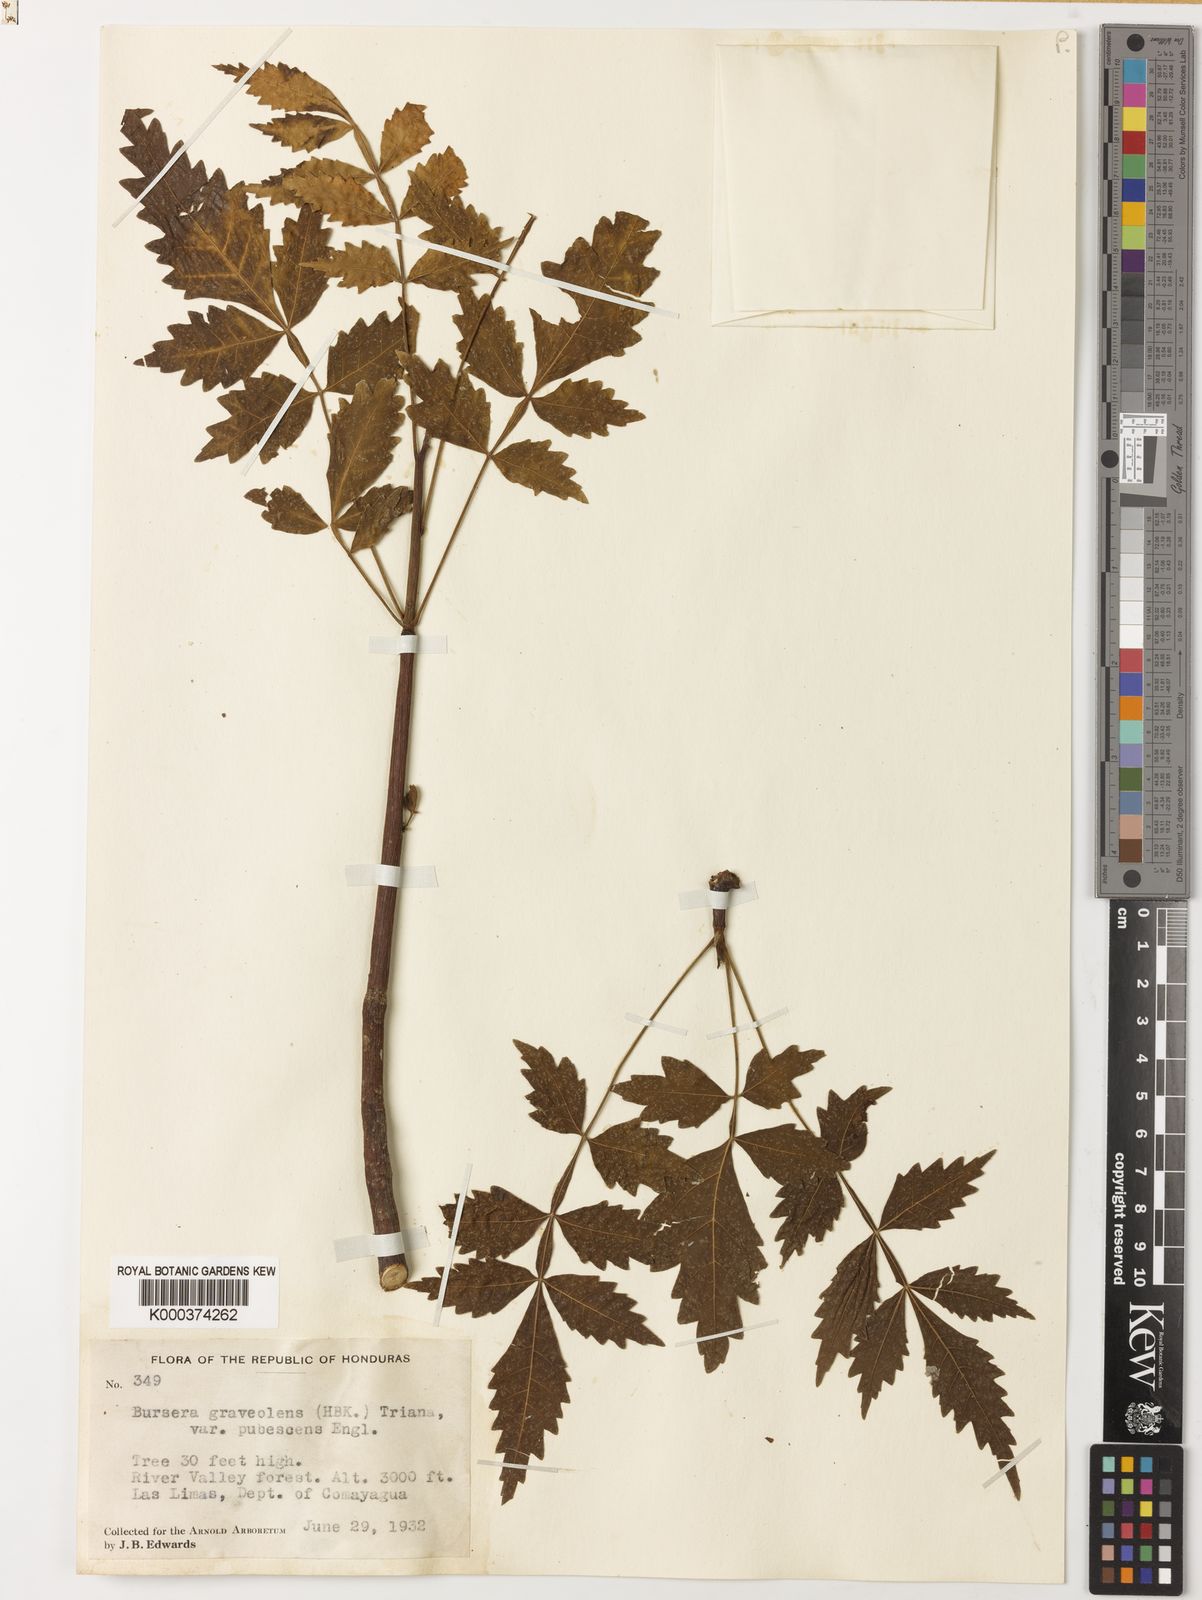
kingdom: Plantae
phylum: Tracheophyta
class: Magnoliopsida
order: Sapindales
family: Burseraceae
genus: Bursera
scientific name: Bursera graveolens
